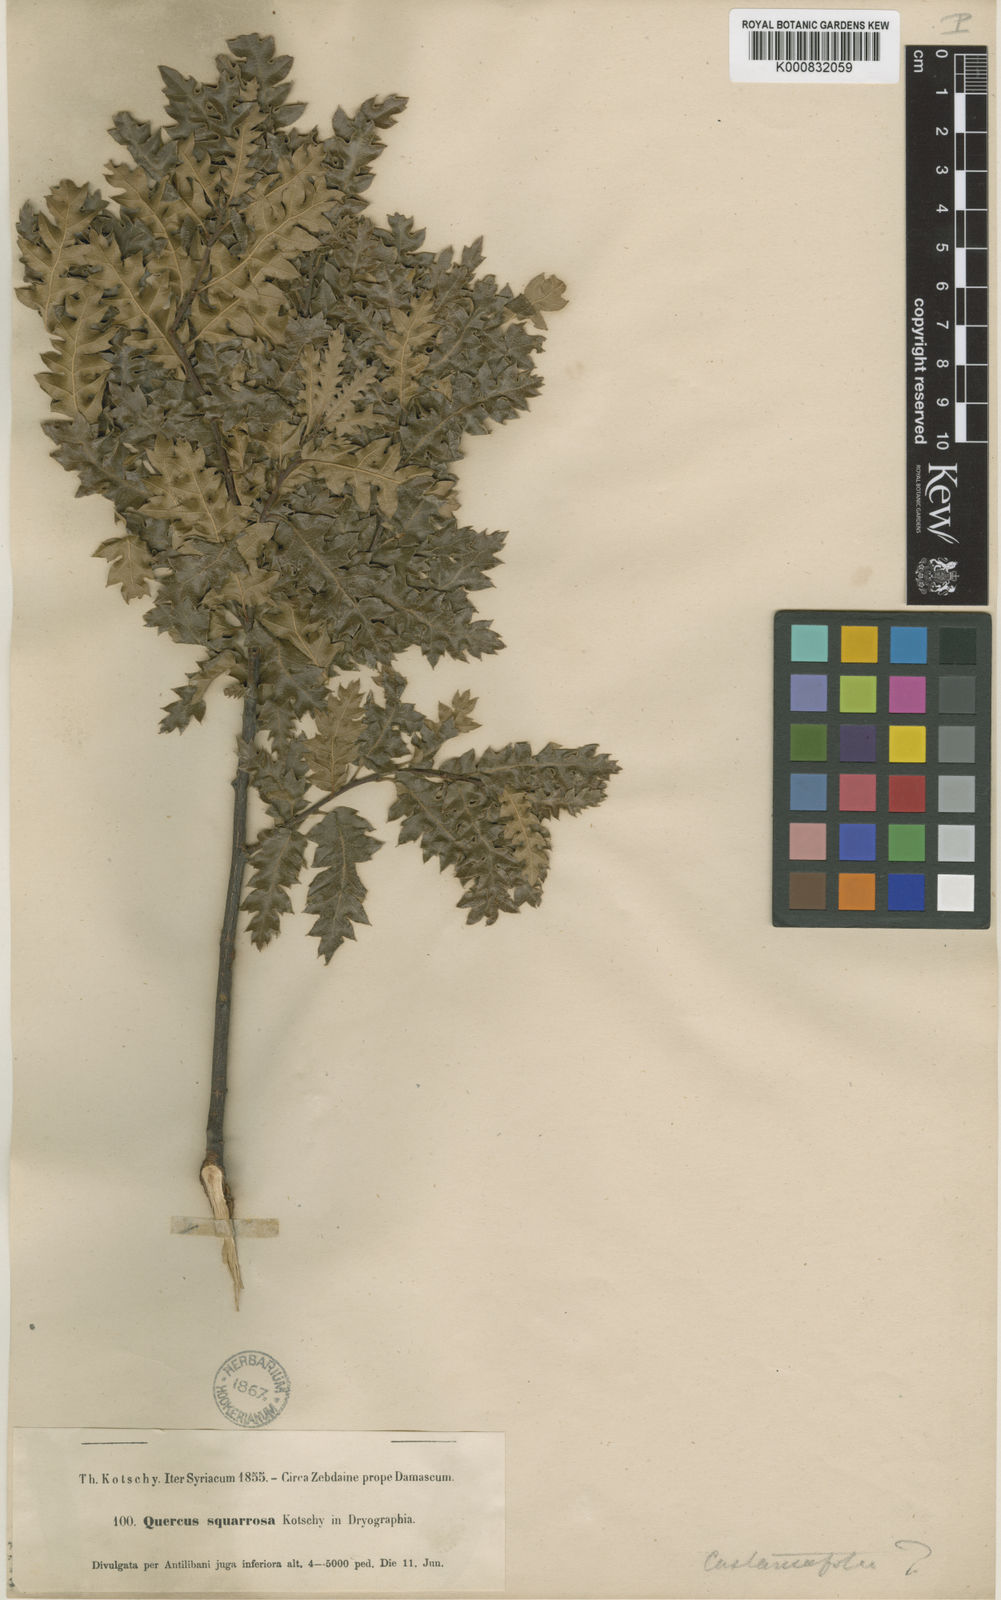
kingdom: Plantae
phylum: Tracheophyta
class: Magnoliopsida
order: Fagales
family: Fagaceae
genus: Quercus
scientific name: Quercus libani
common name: Lebanon oak
